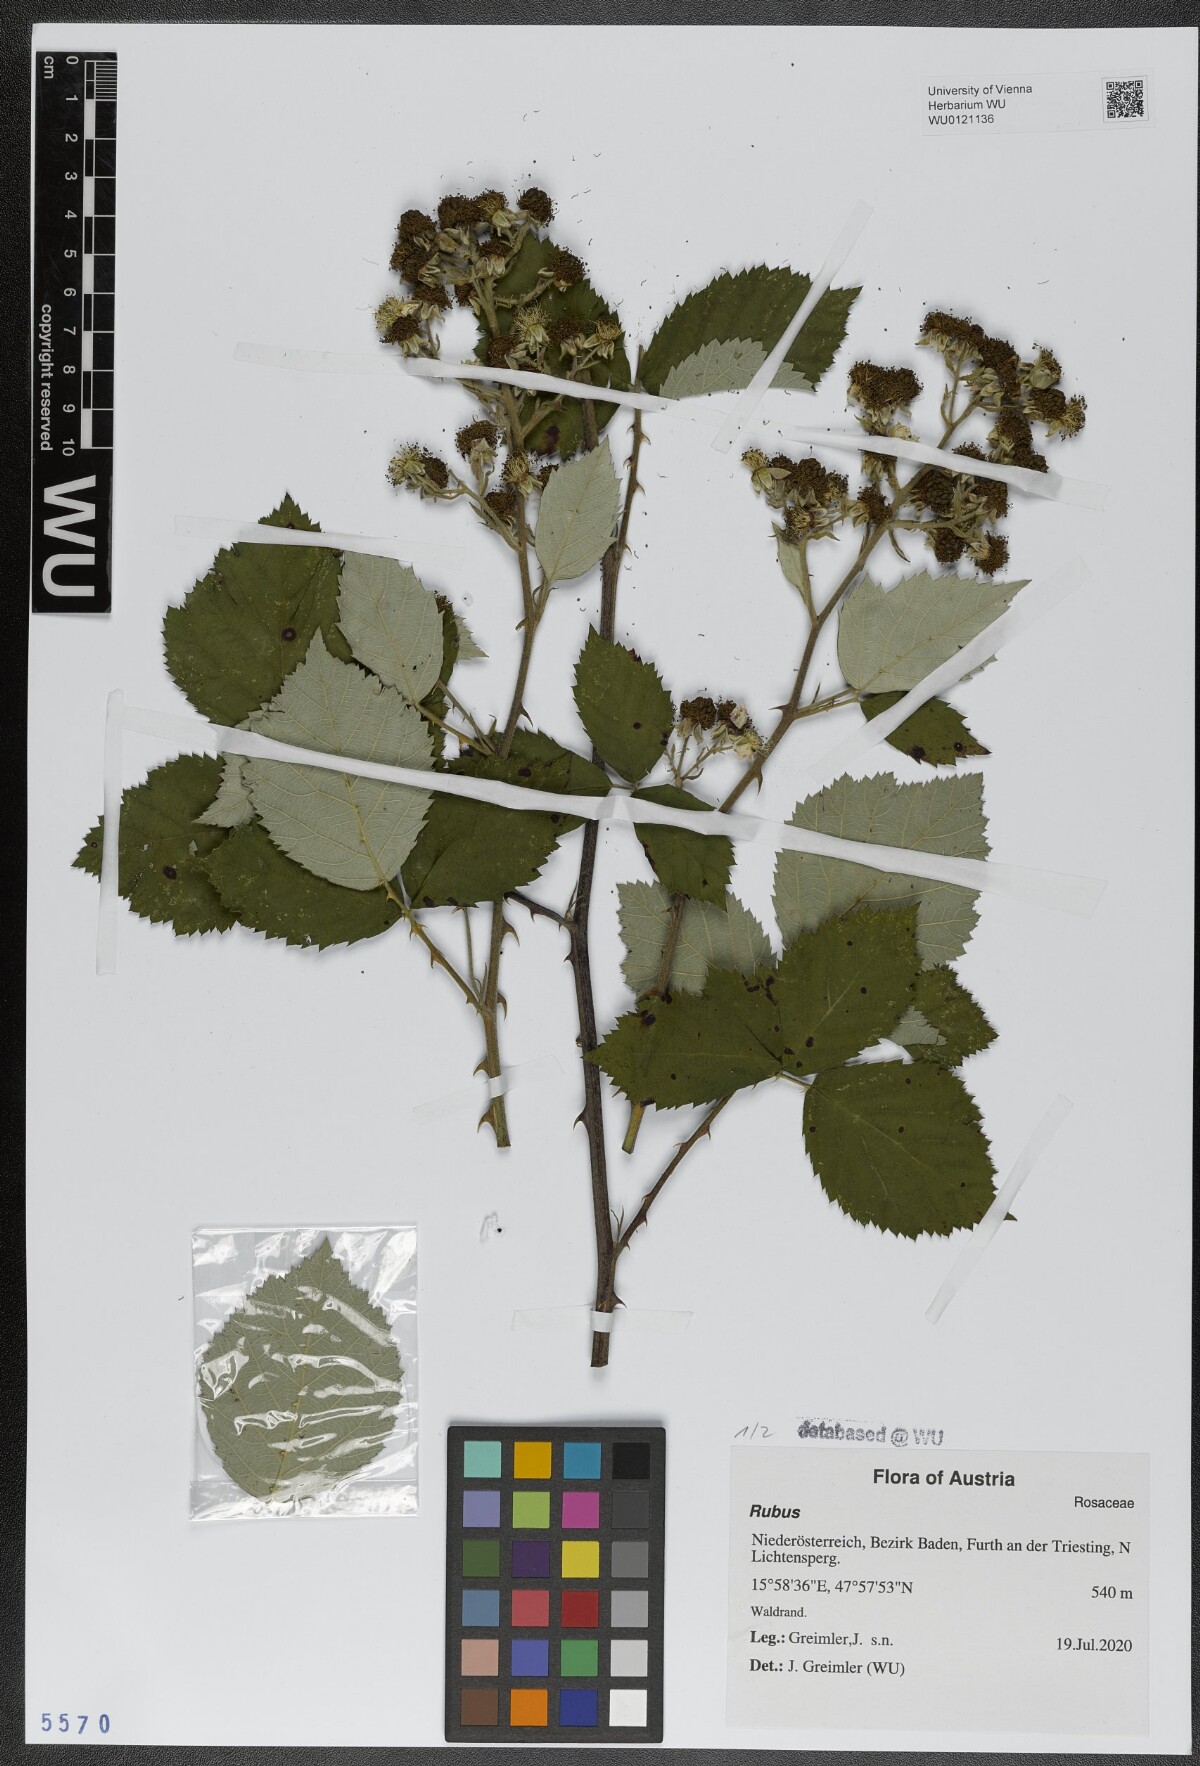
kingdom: Plantae
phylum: Tracheophyta
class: Magnoliopsida
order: Rosales
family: Rosaceae
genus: Rubus
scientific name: Rubus
